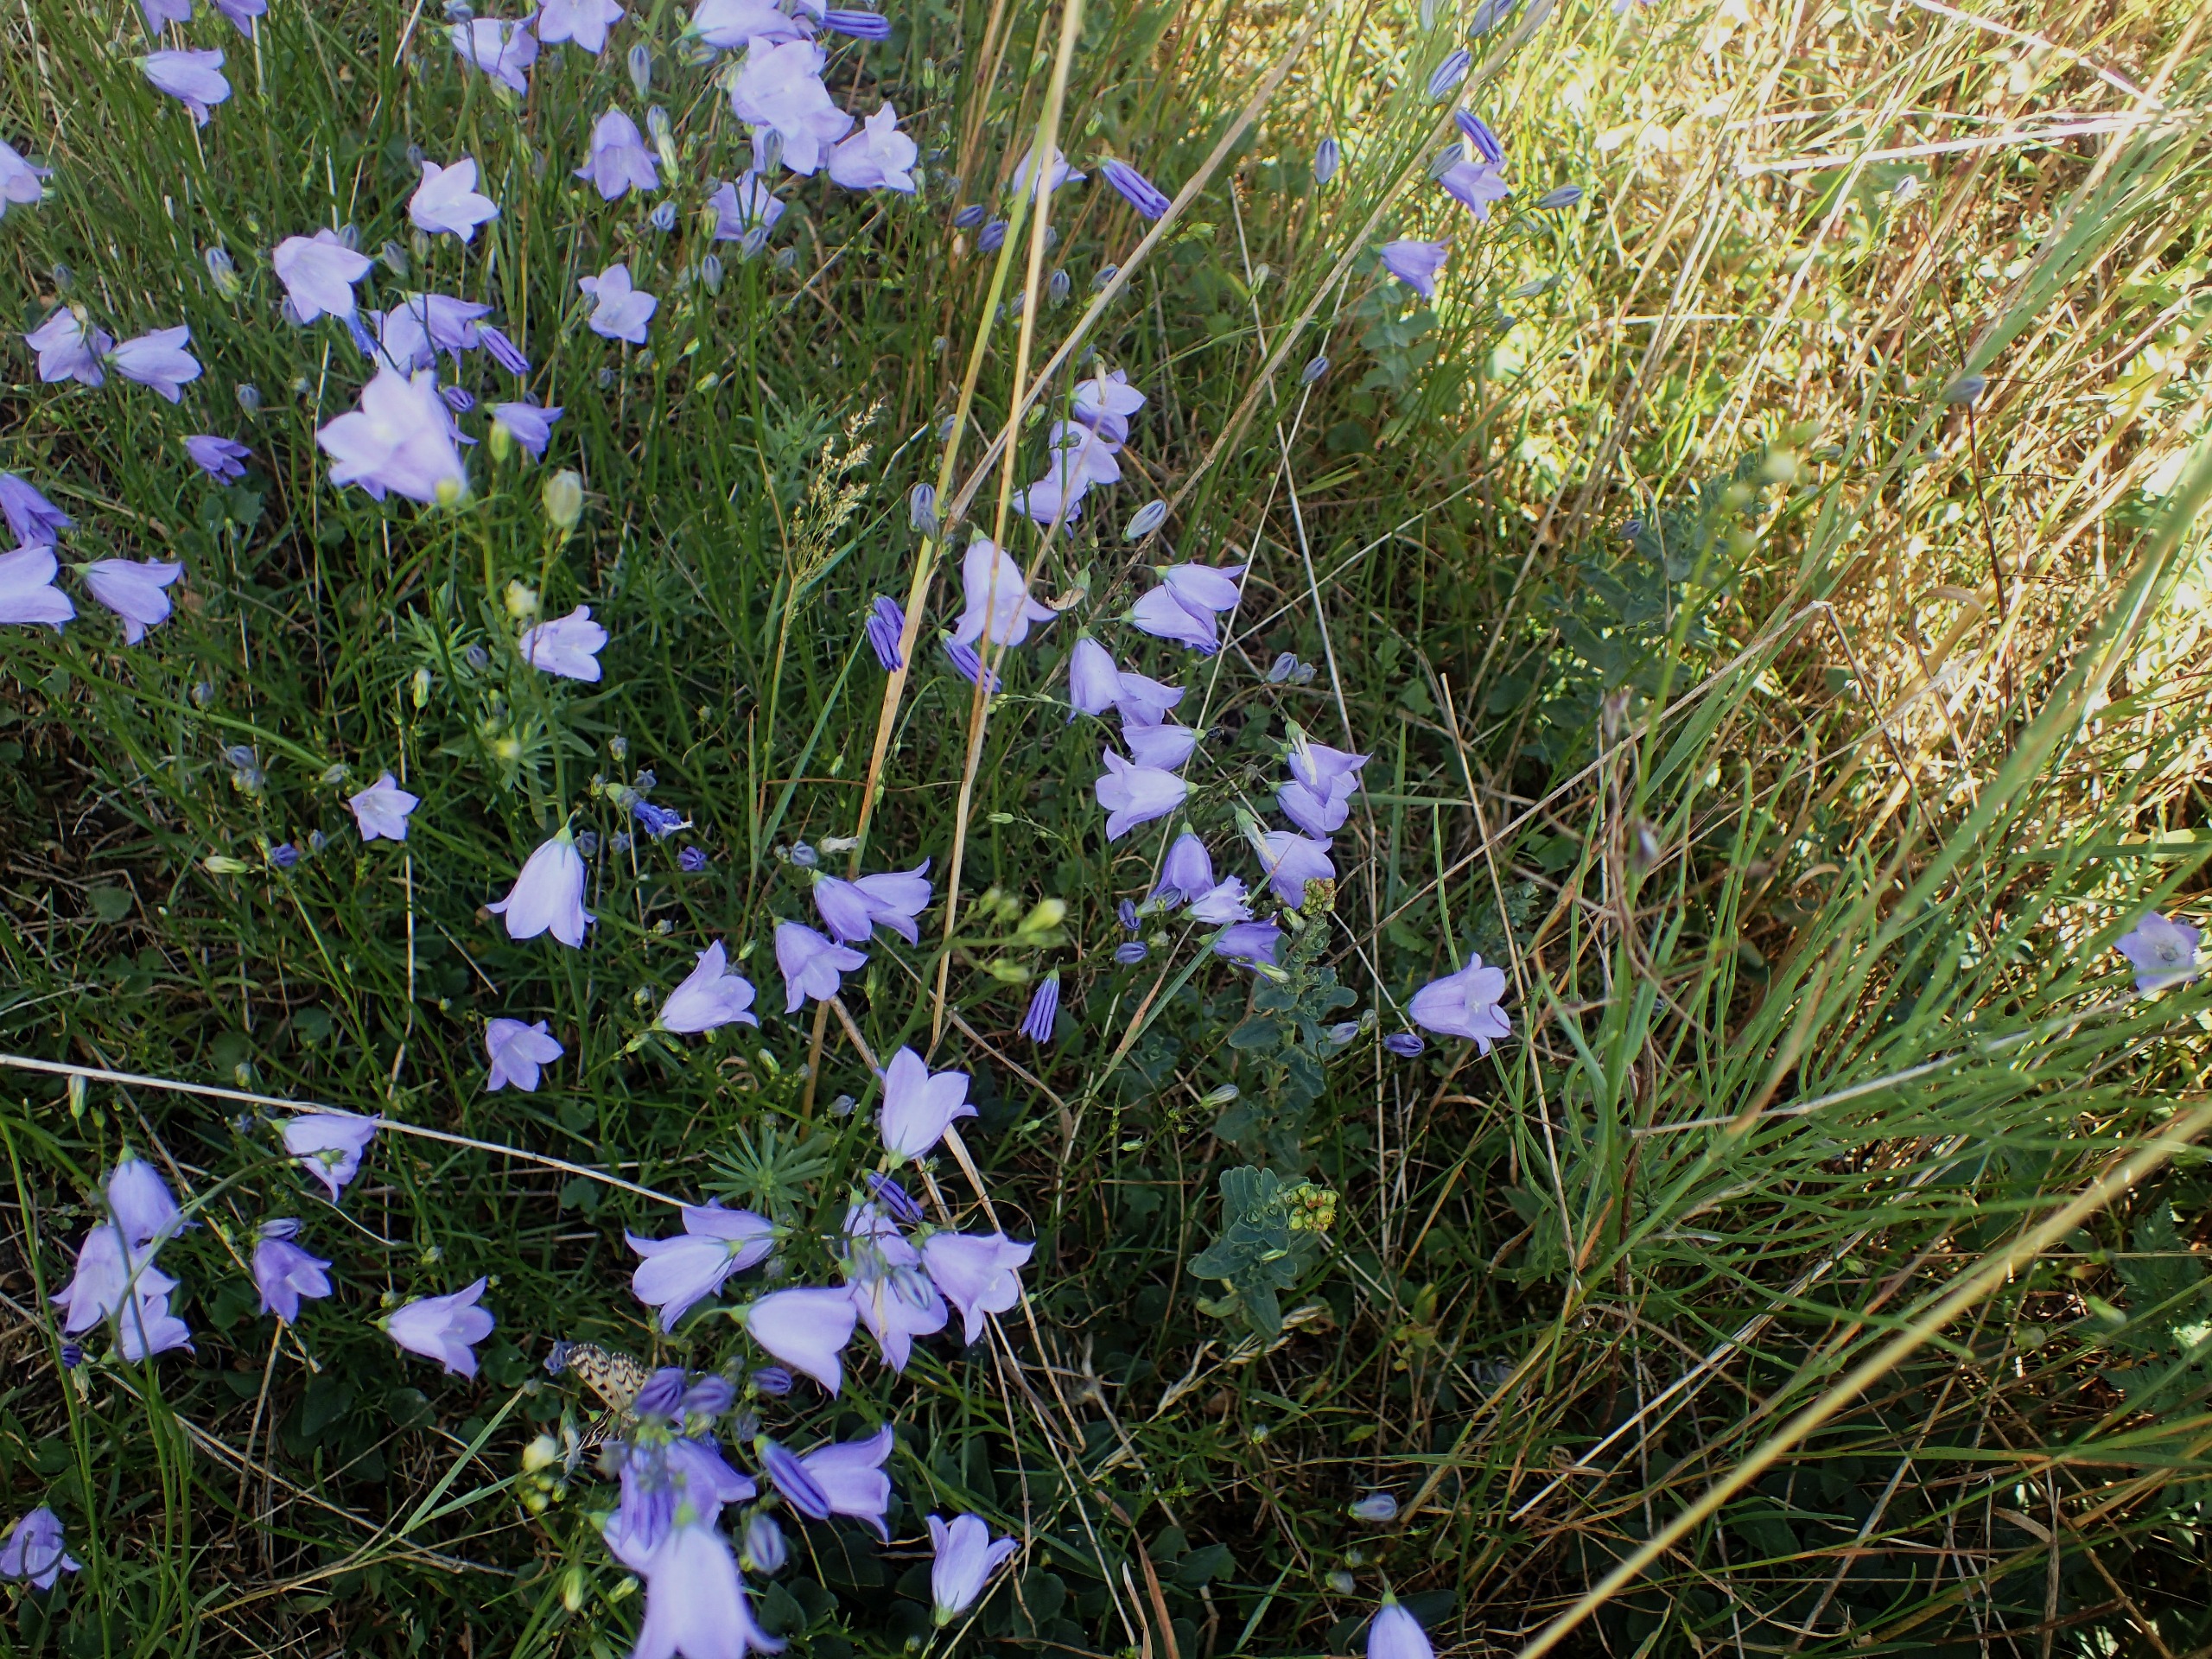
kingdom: Plantae
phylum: Tracheophyta
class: Magnoliopsida
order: Asterales
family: Campanulaceae
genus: Campanula
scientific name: Campanula rotundifolia
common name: Liden klokke
